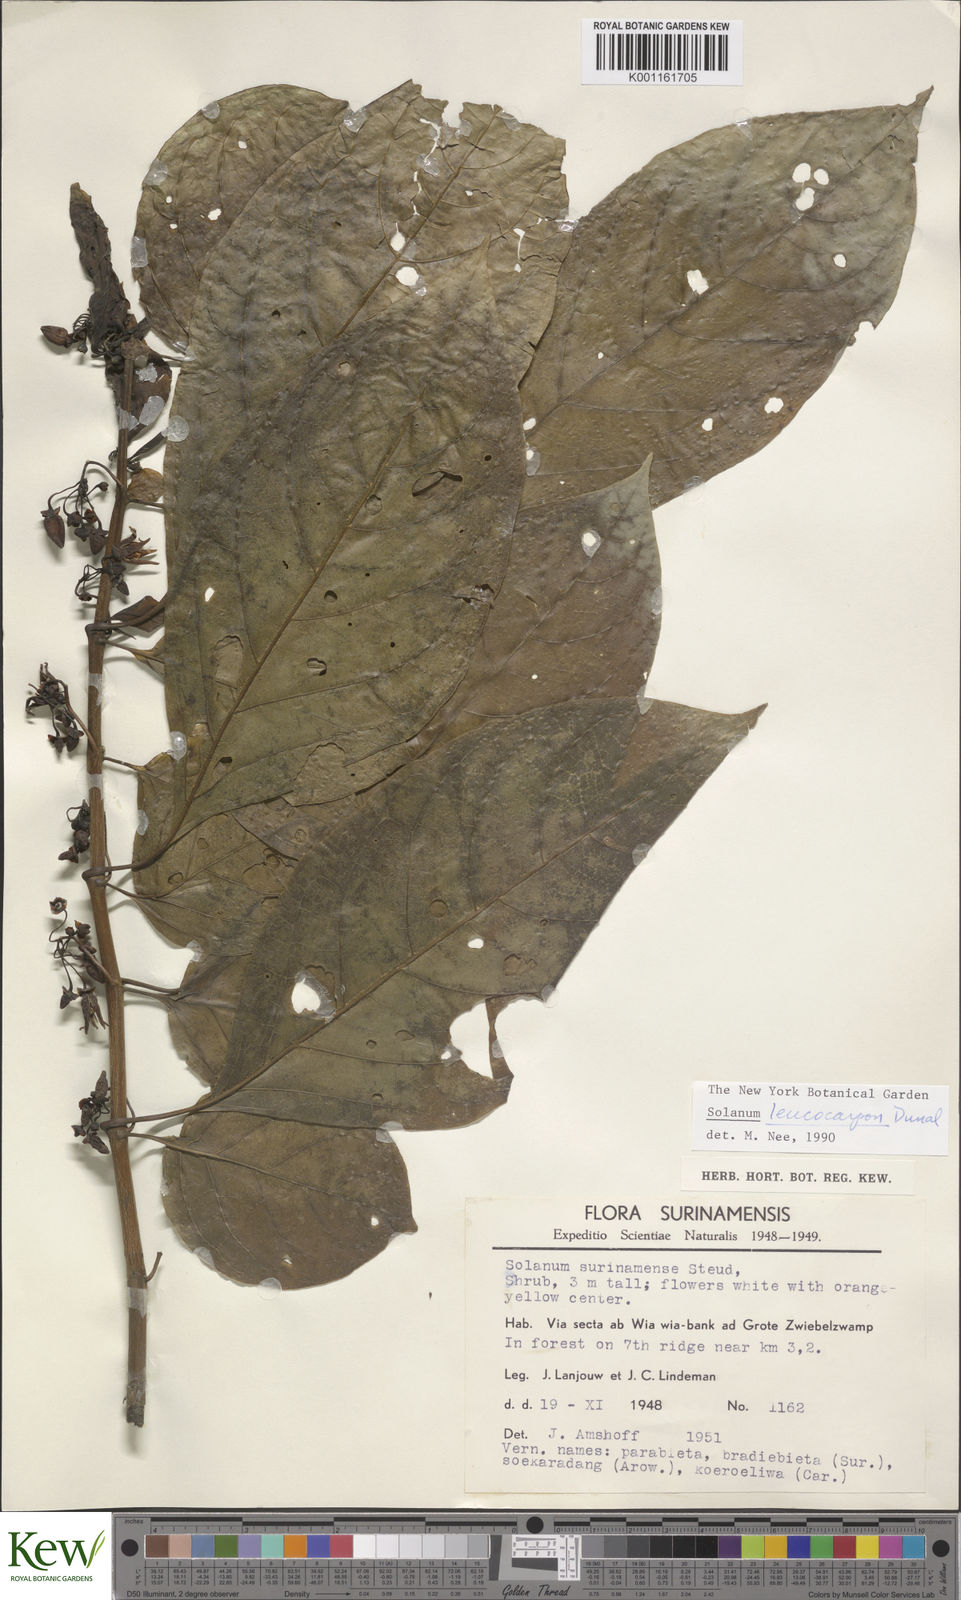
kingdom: Plantae
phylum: Tracheophyta
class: Magnoliopsida
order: Solanales
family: Solanaceae
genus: Solanum
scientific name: Solanum leucocarpon
